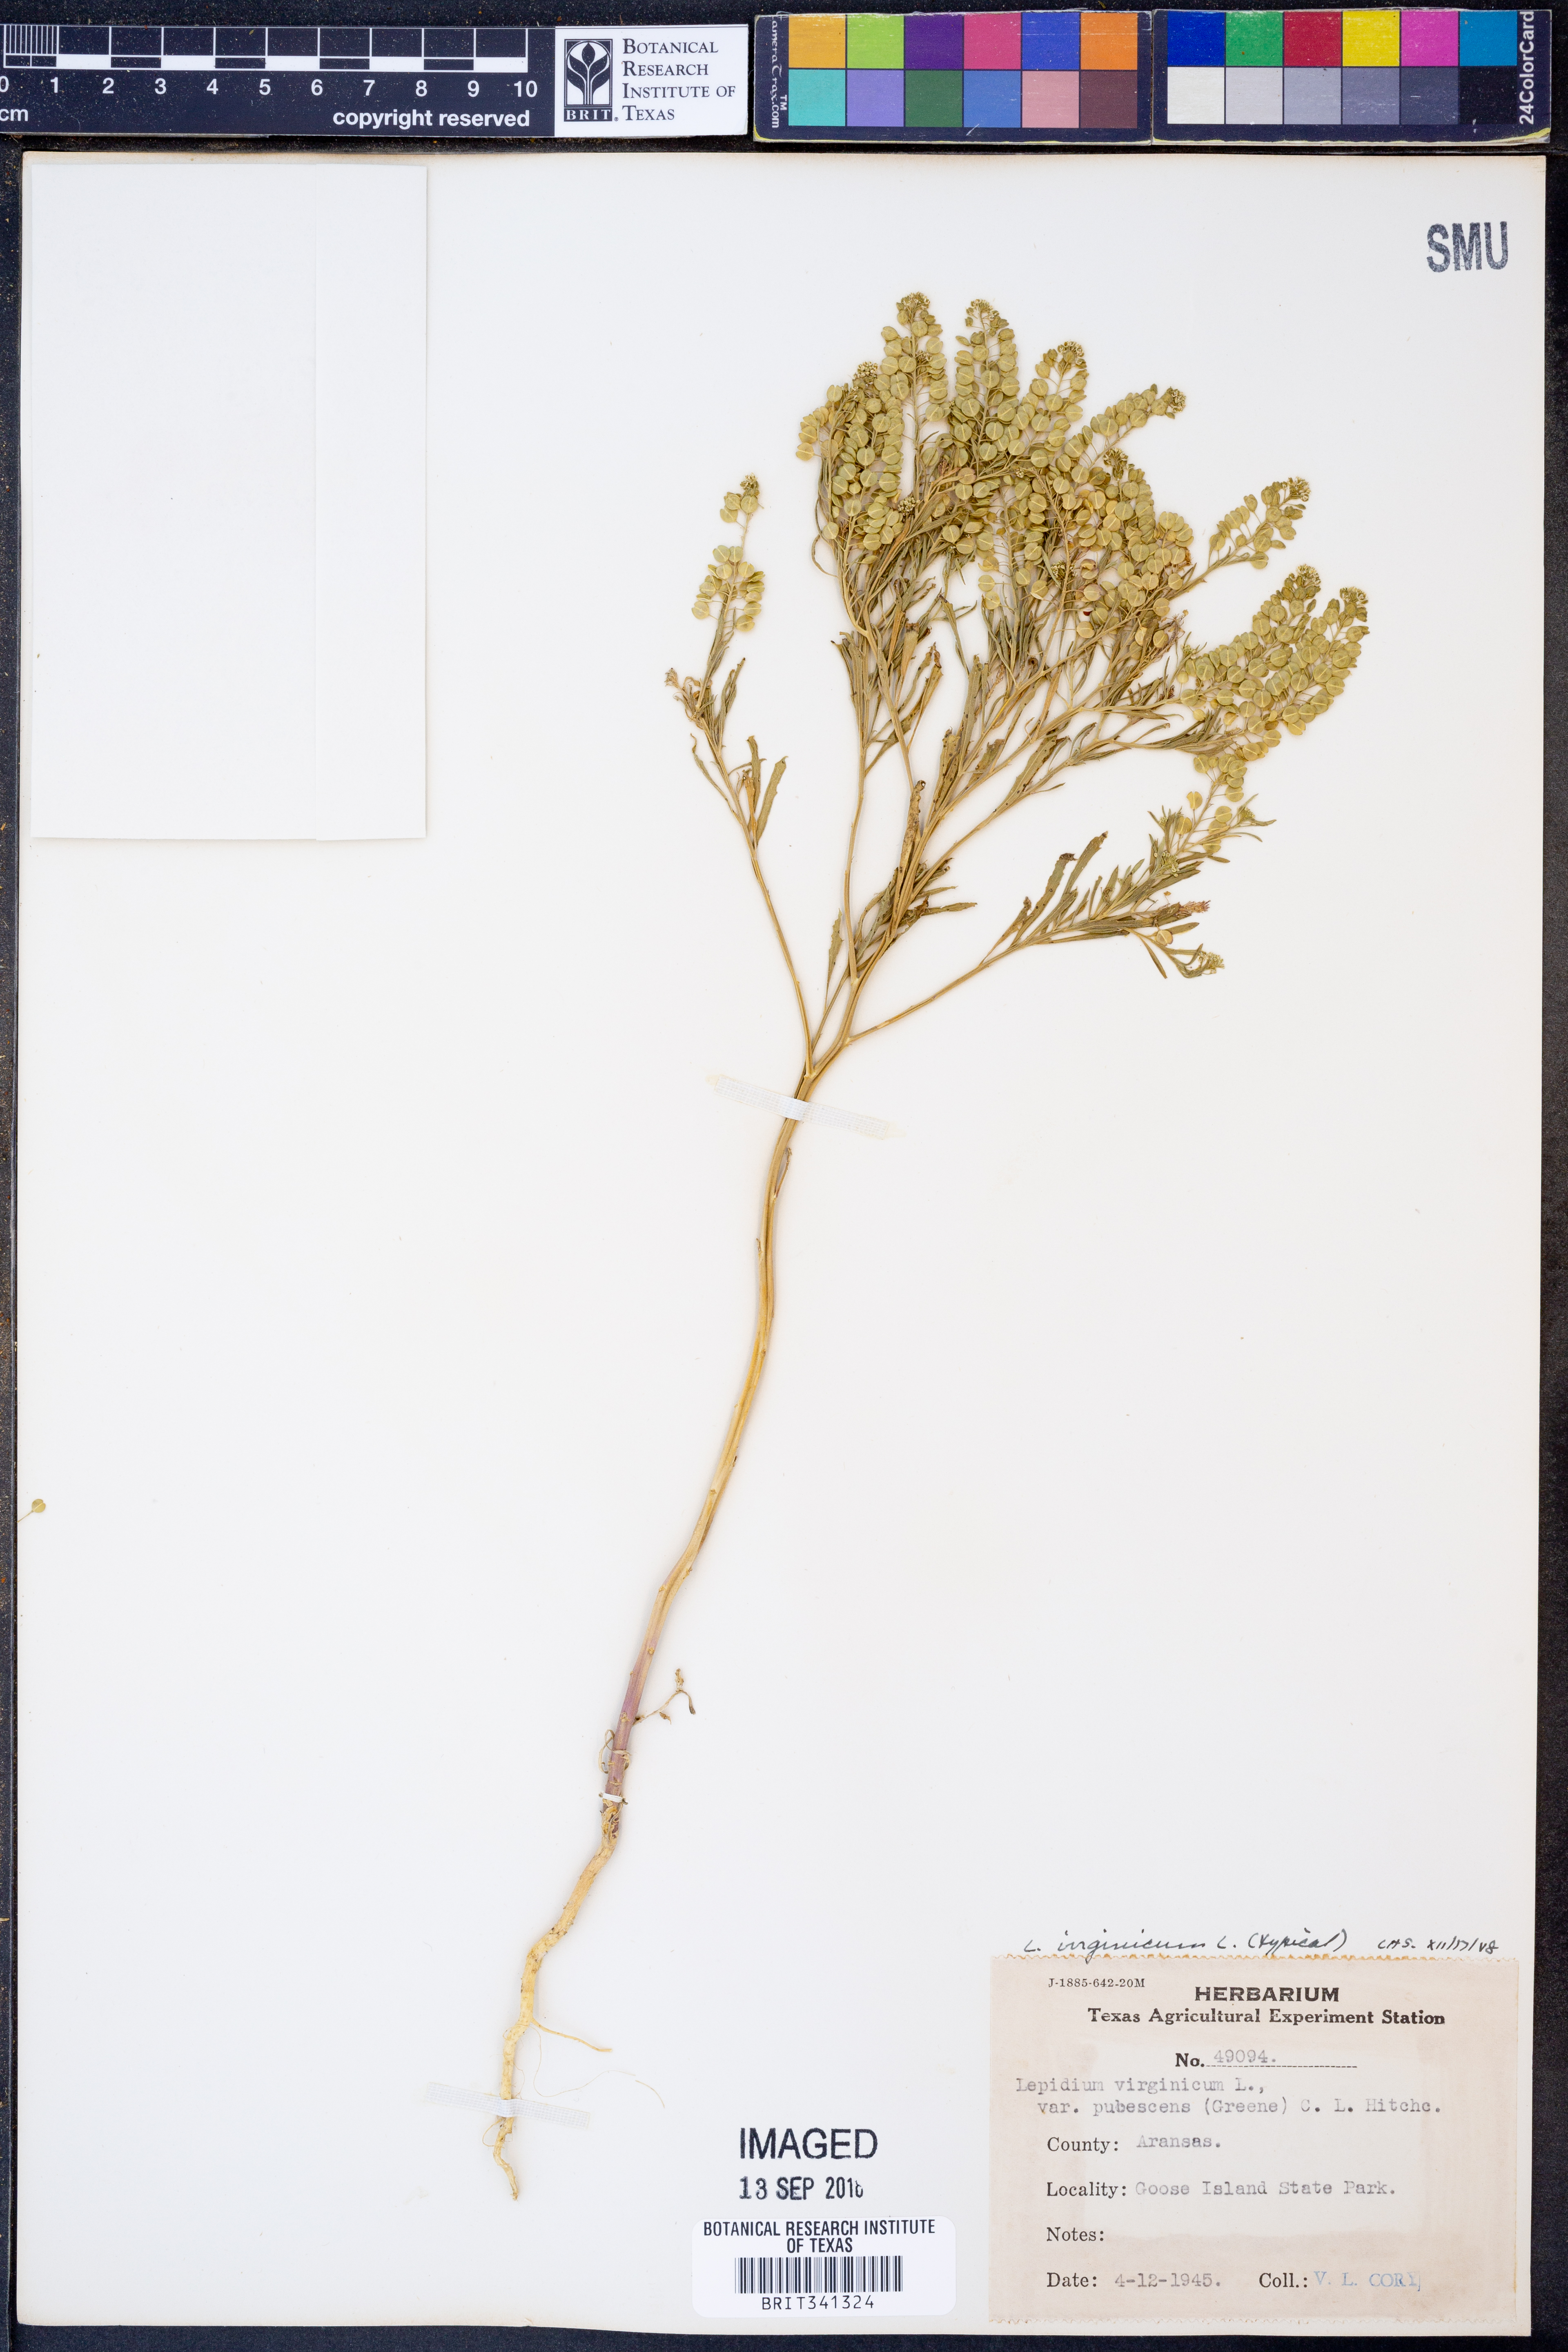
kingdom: Plantae
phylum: Tracheophyta
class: Magnoliopsida
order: Brassicales
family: Brassicaceae
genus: Lepidium
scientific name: Lepidium virginicum
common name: Least pepperwort
